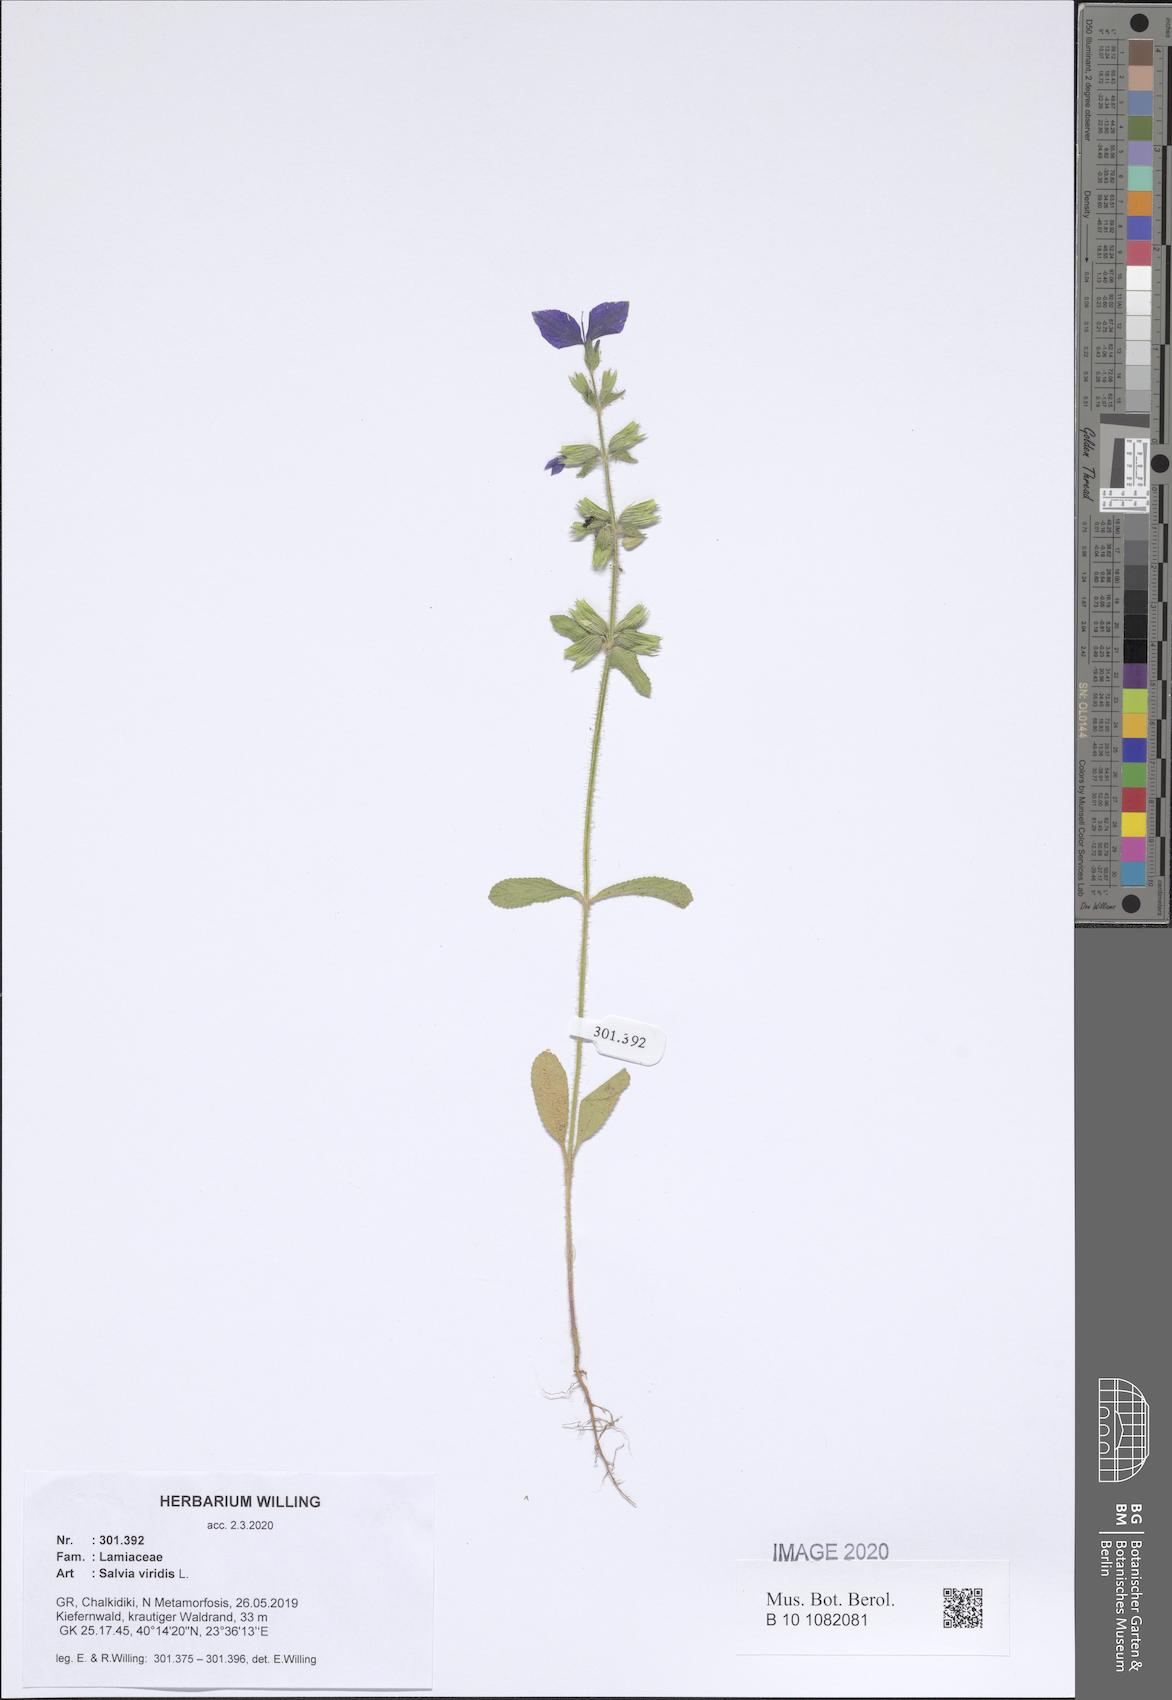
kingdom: Plantae
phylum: Tracheophyta
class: Magnoliopsida
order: Lamiales
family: Lamiaceae
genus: Salvia
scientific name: Salvia viridis
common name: Annual clary
